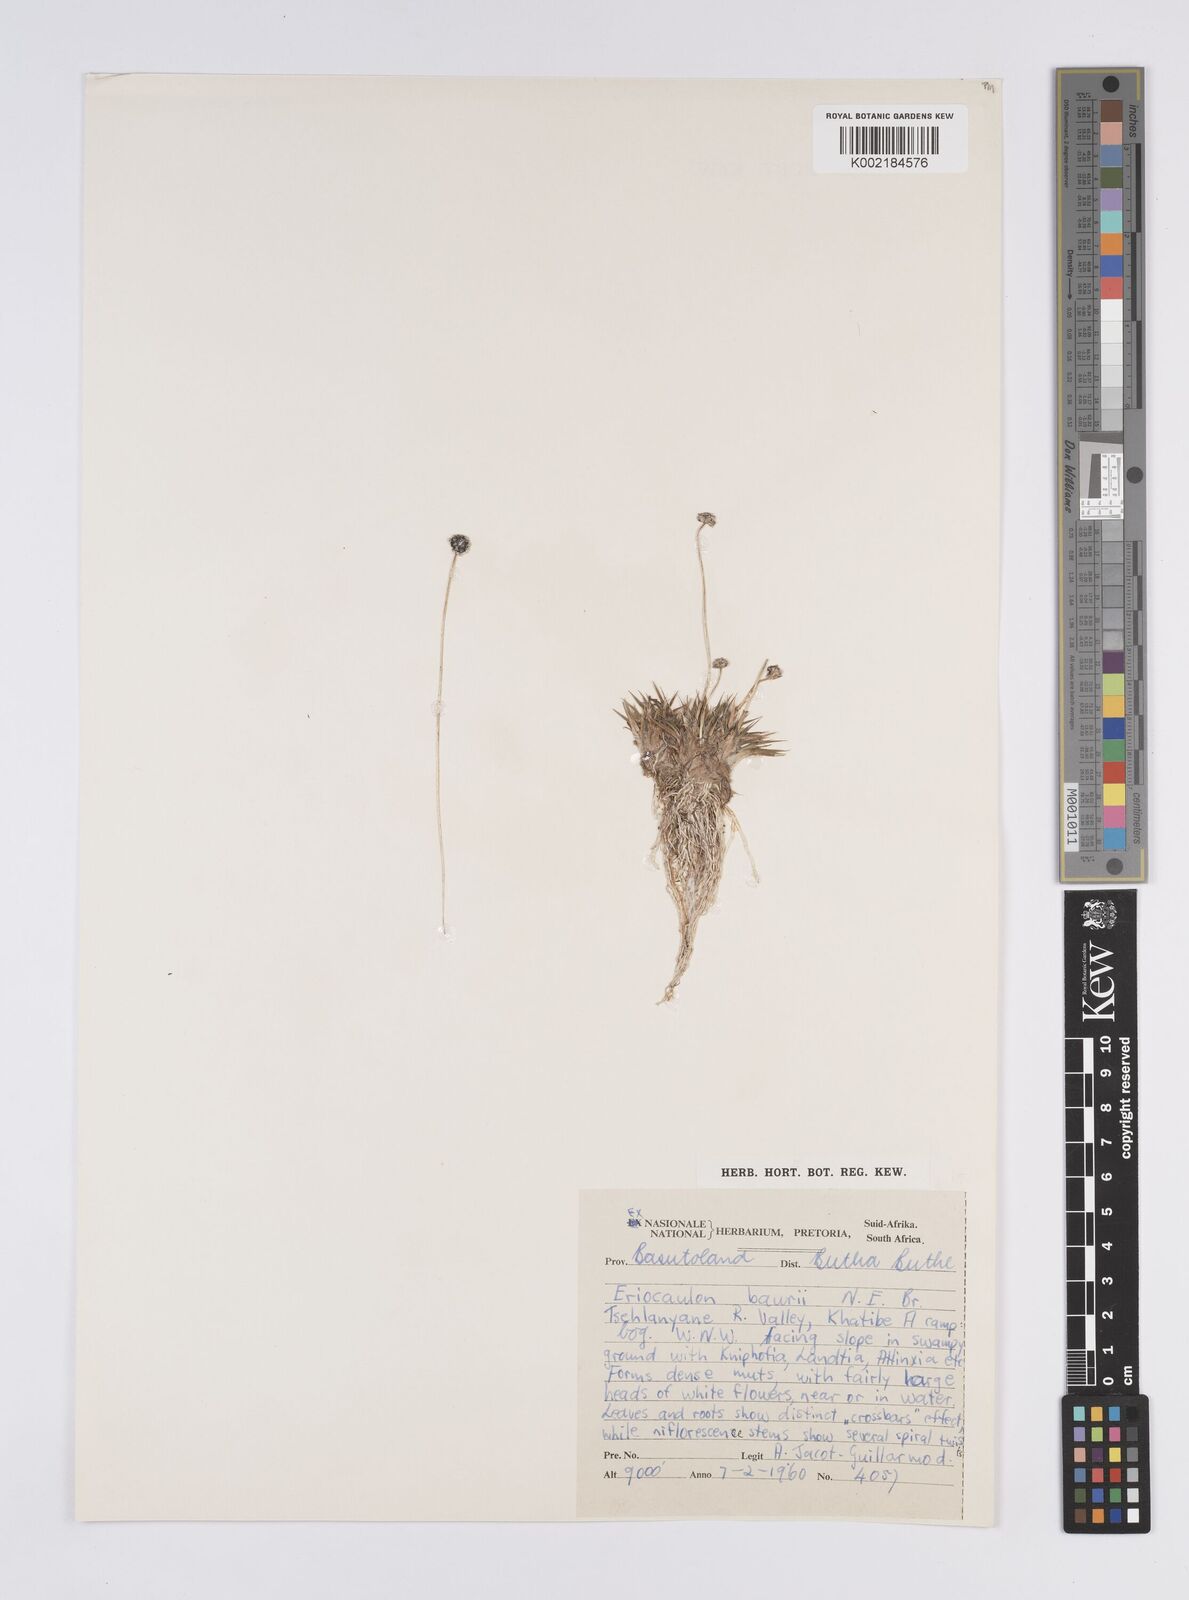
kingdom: Plantae
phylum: Tracheophyta
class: Liliopsida
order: Poales
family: Eriocaulaceae
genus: Eriocaulon
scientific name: Eriocaulon sonderianum
